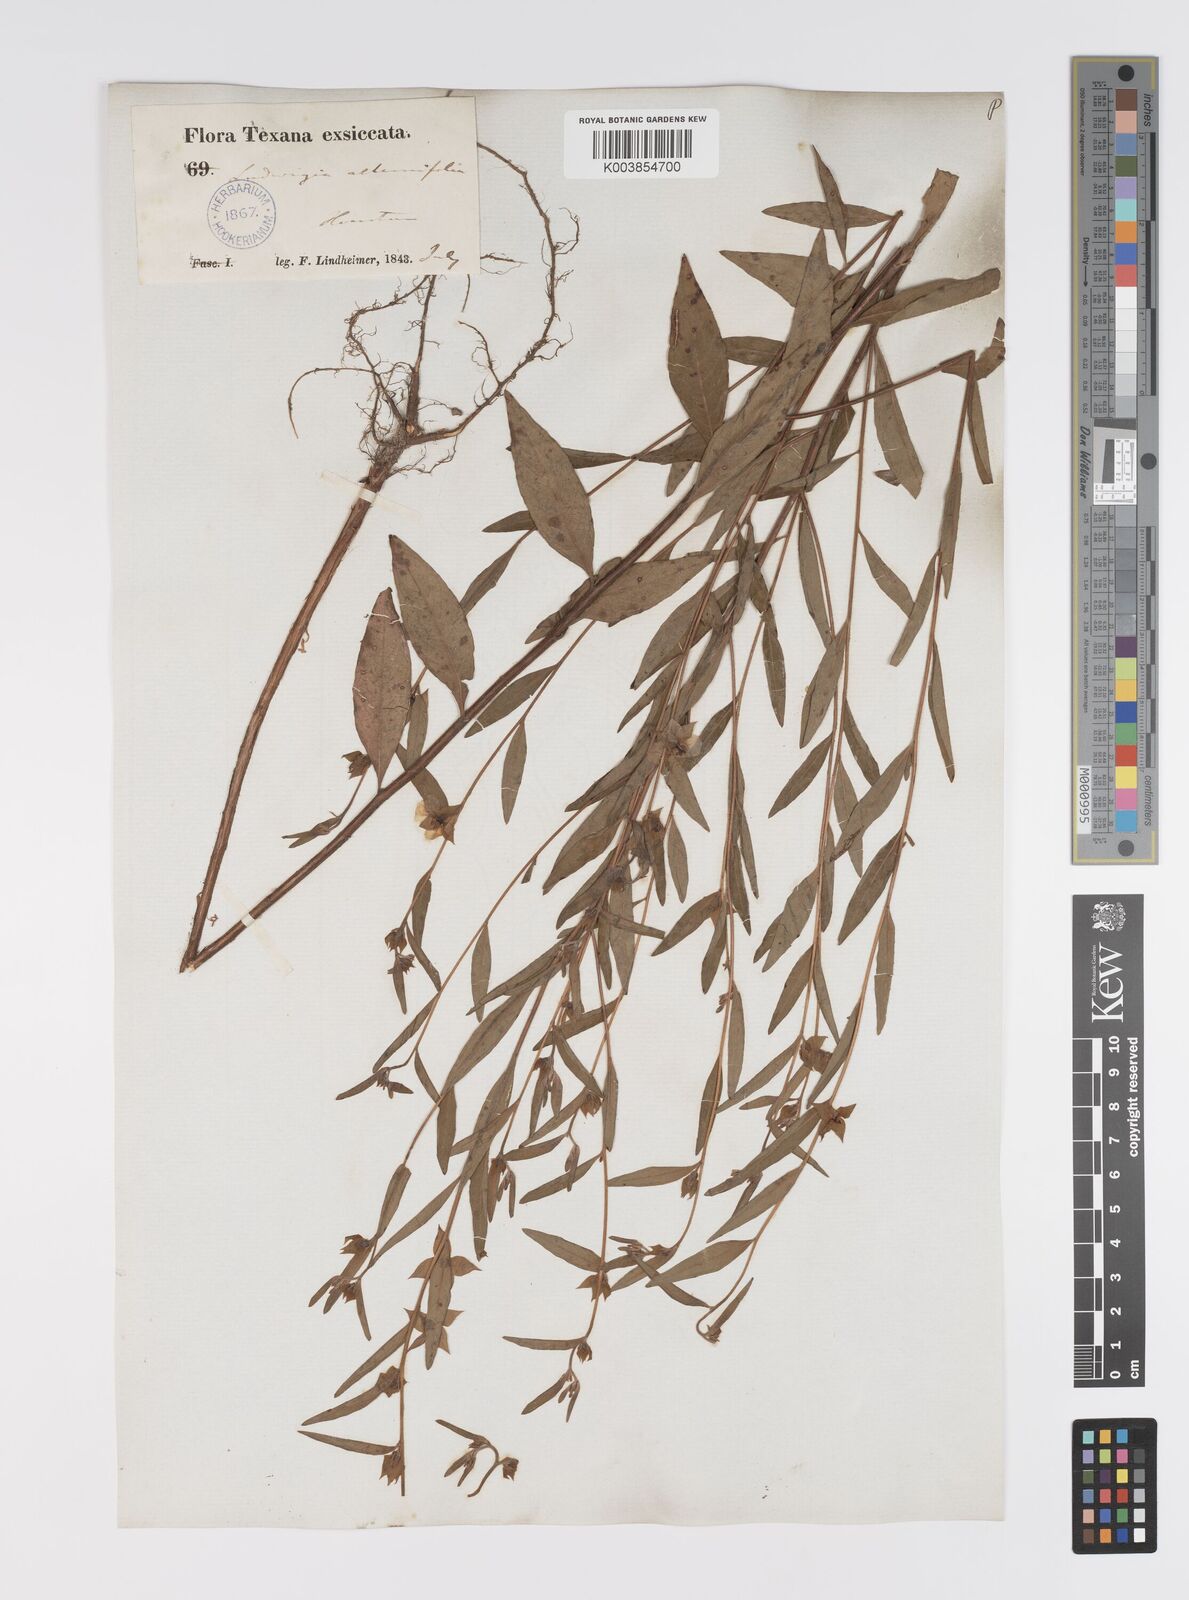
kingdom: Plantae
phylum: Tracheophyta
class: Magnoliopsida
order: Myrtales
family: Onagraceae
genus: Ludwigia
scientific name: Ludwigia alternifolia
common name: Rattlebox
